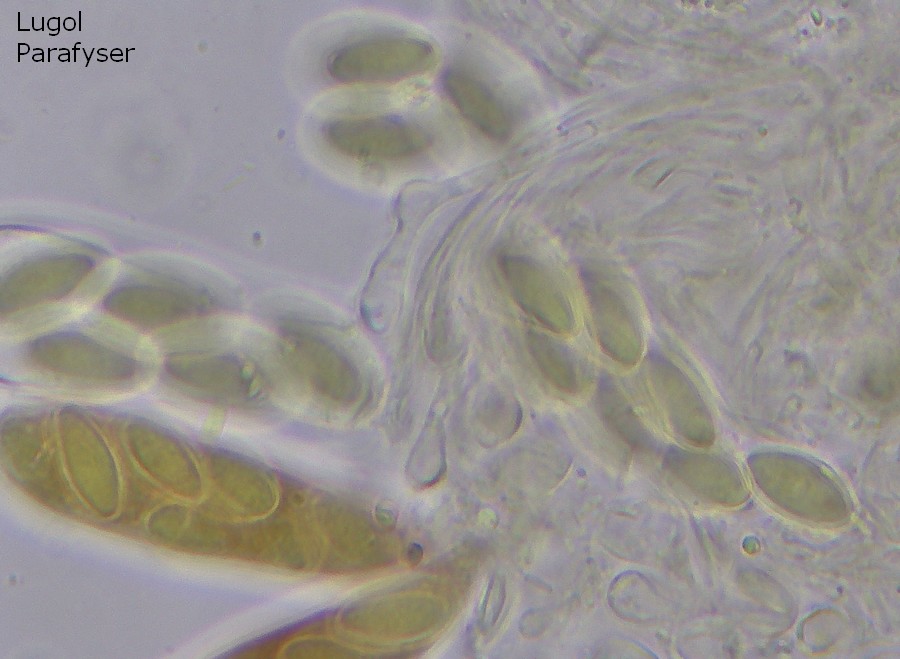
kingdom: Fungi
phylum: Ascomycota
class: Leotiomycetes
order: Thelebolales
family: Thelebolaceae
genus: Thelebolus
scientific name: Thelebolus microsporus
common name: ottesporet småbæger
